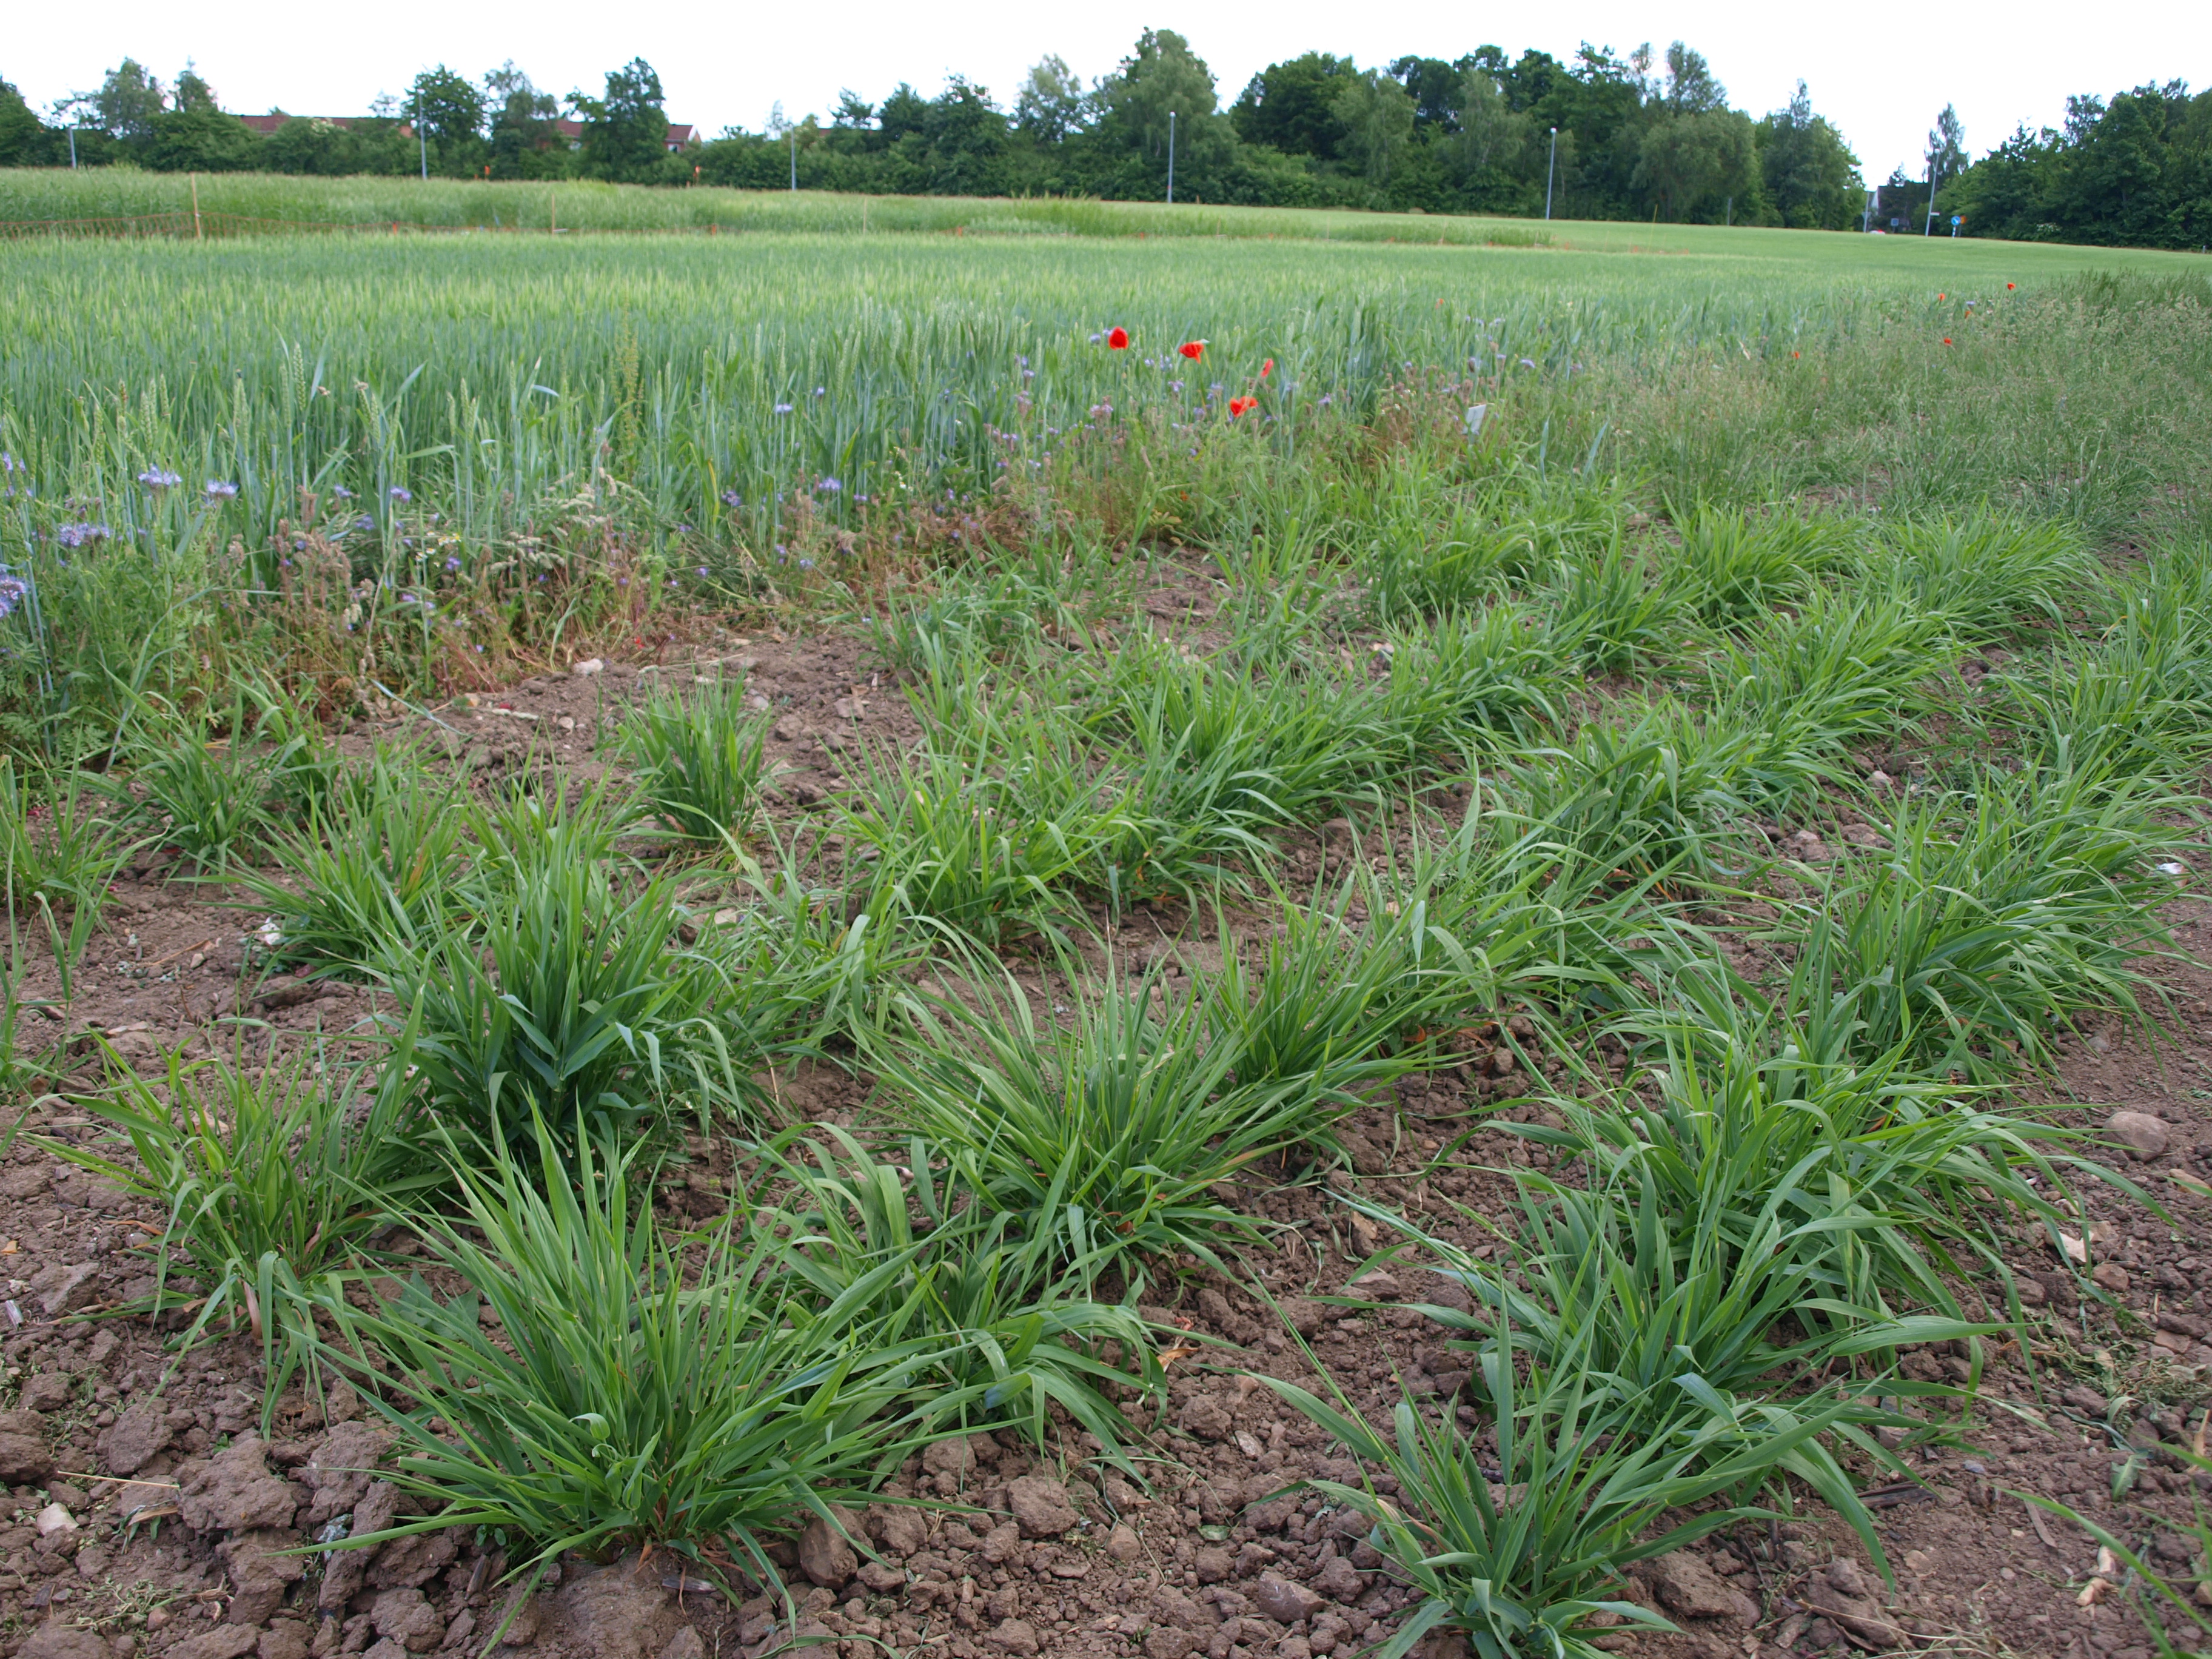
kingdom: Plantae
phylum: Tracheophyta
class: Liliopsida
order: Poales
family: Poaceae
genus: Phalaris
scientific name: Phalaris arundinacea
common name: Reed canary-grass
